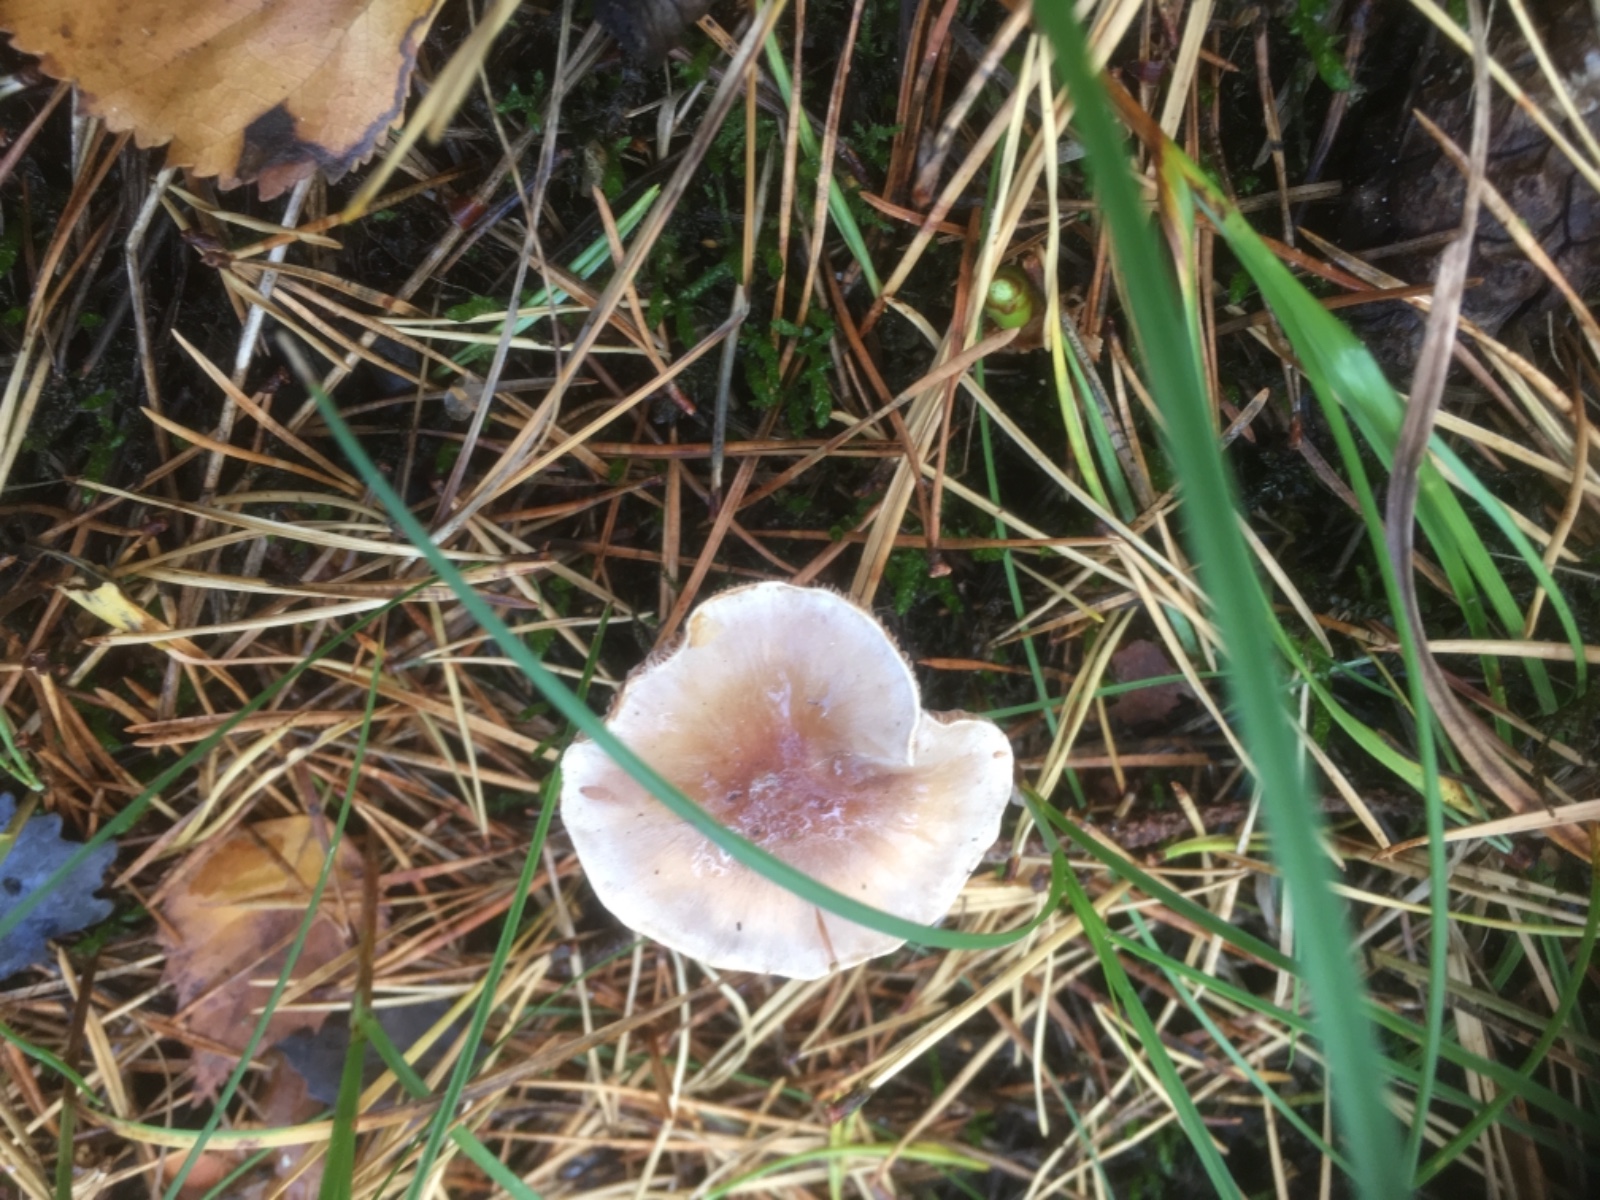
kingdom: Fungi
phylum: Basidiomycota
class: Agaricomycetes
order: Agaricales
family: Hymenogastraceae
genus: Hebeloma
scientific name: Hebeloma
